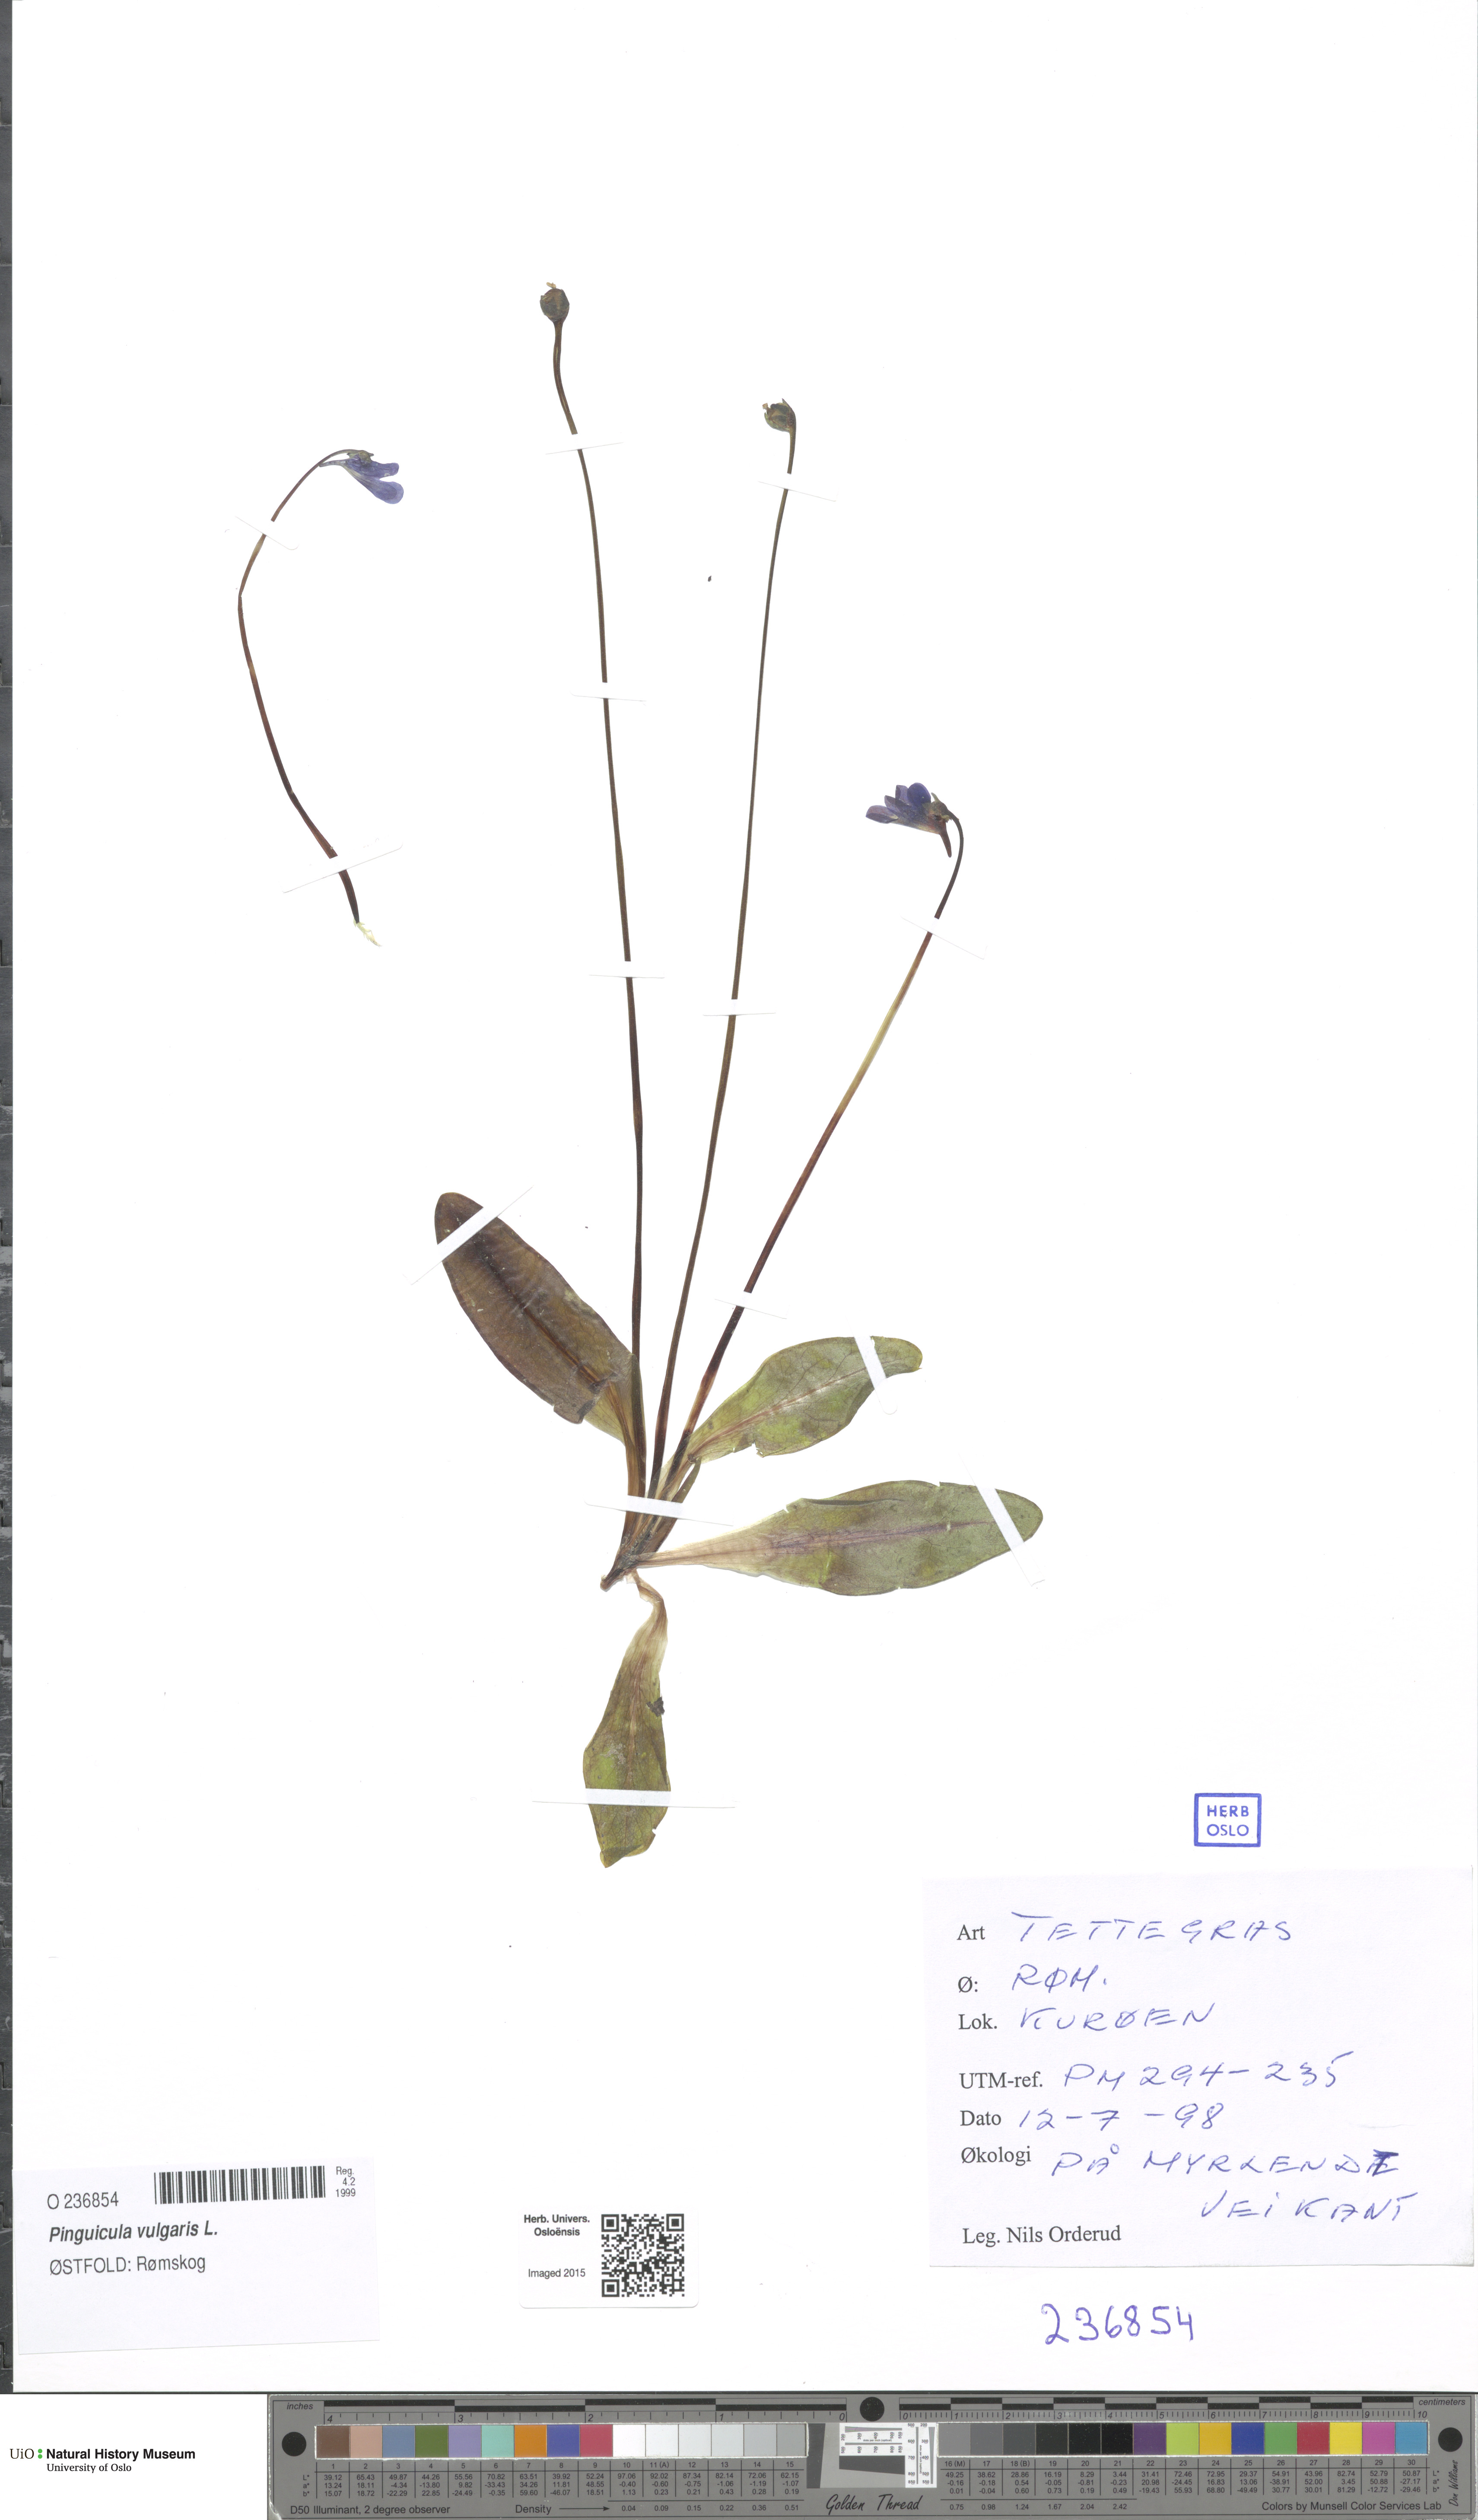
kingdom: Plantae
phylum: Tracheophyta
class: Magnoliopsida
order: Lamiales
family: Lentibulariaceae
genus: Pinguicula
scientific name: Pinguicula vulgaris
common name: Common butterwort
